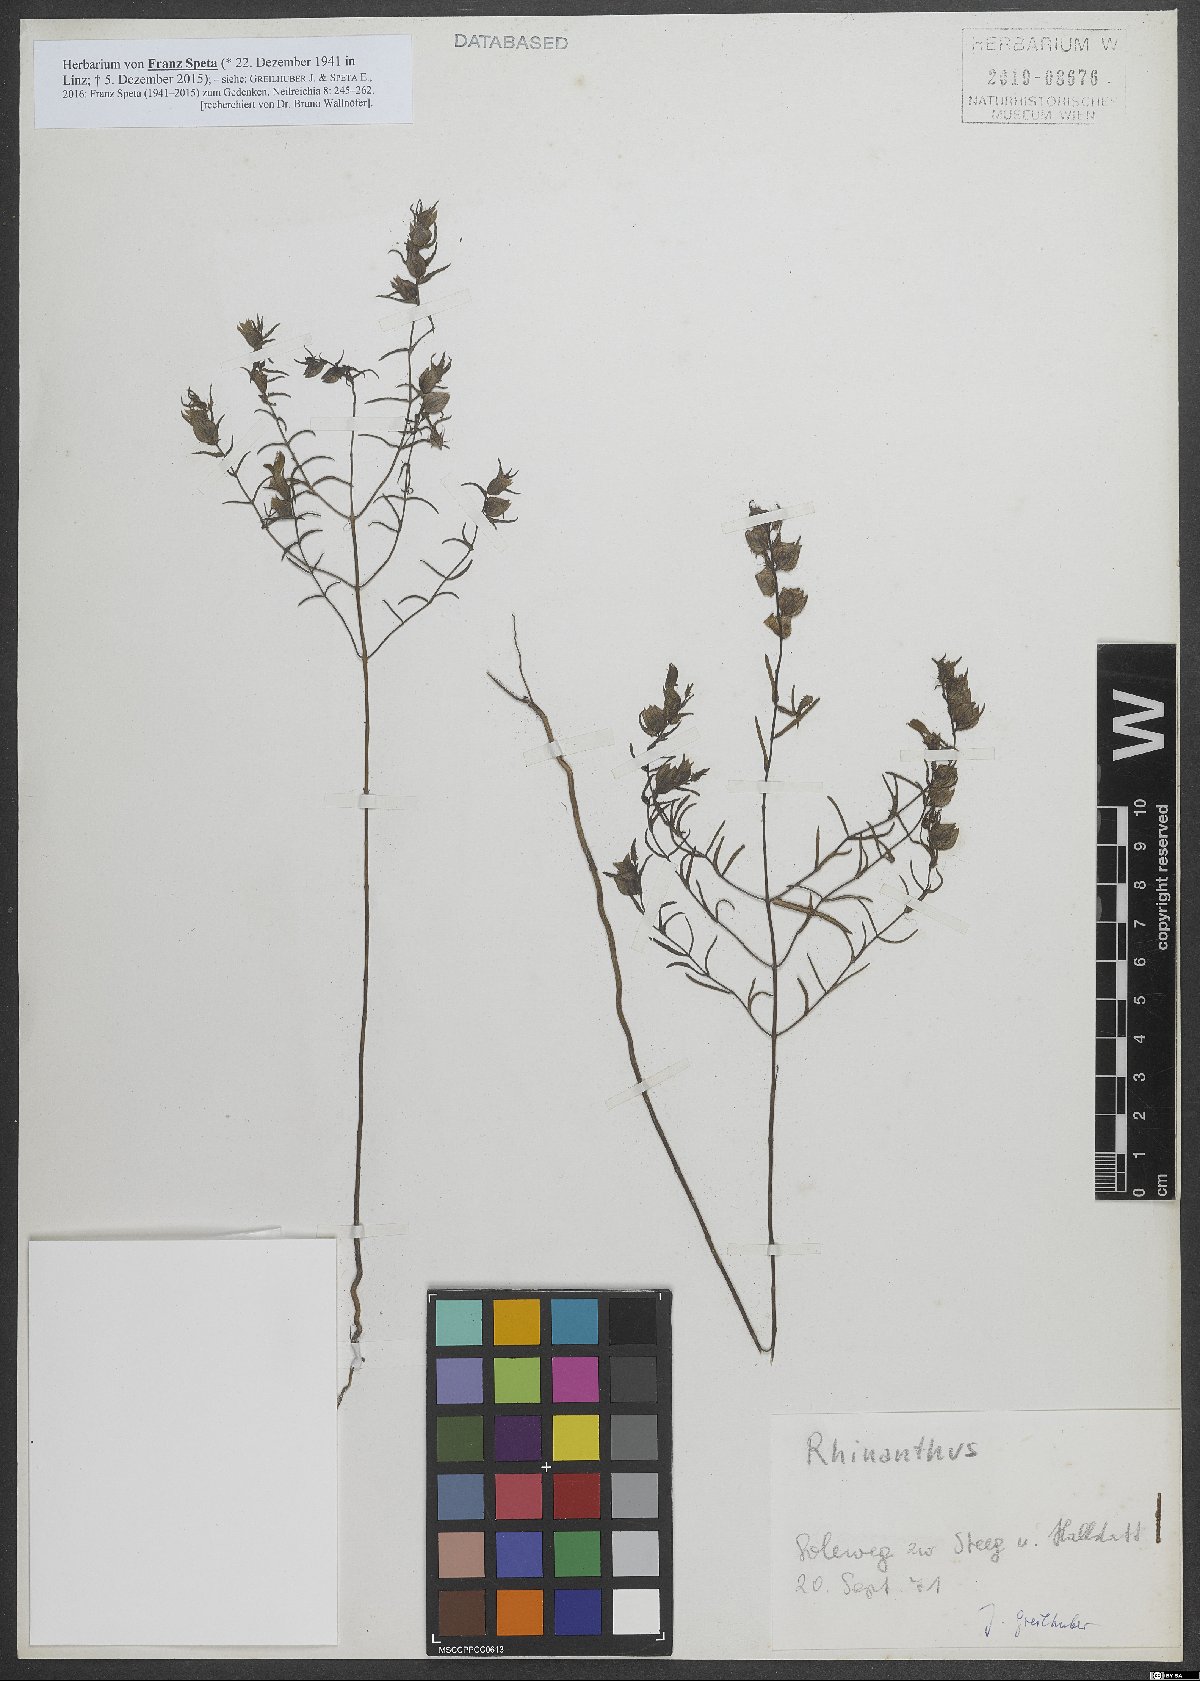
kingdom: Plantae
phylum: Tracheophyta
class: Magnoliopsida
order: Lamiales
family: Orobanchaceae
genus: Rhinanthus
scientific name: Rhinanthus
